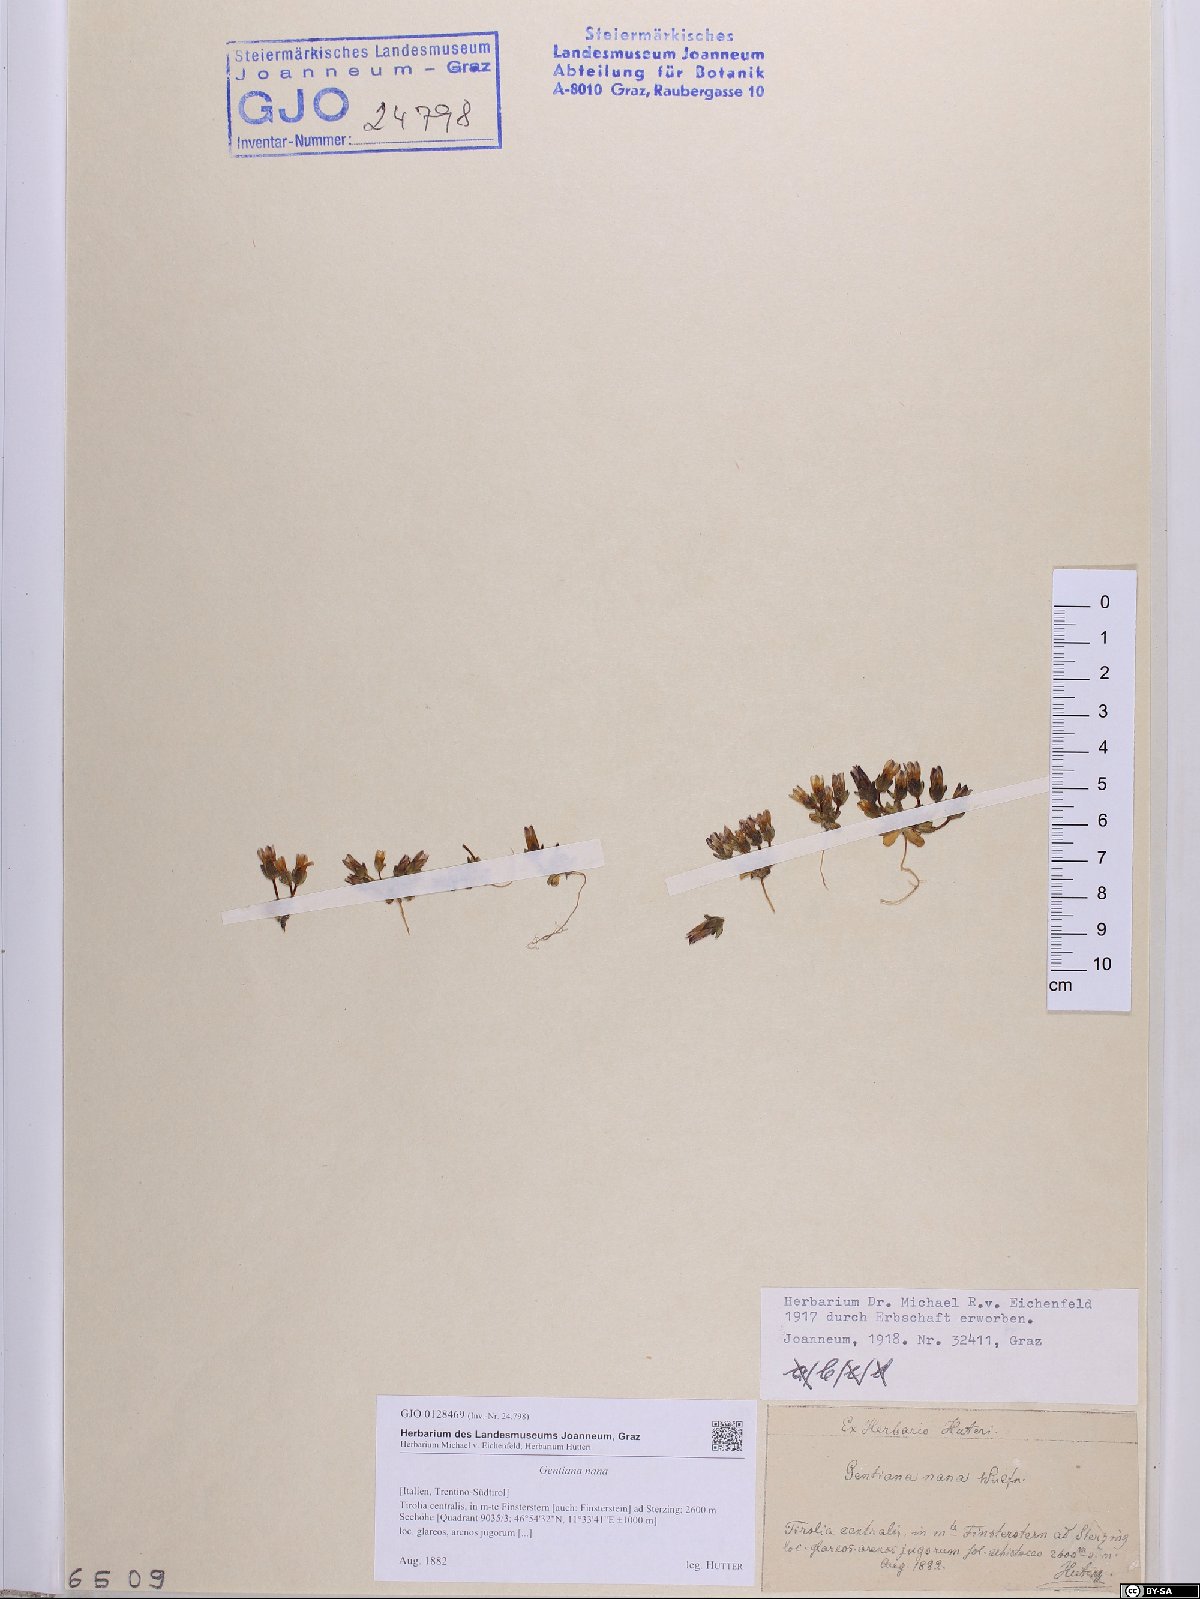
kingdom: Plantae
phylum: Tracheophyta
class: Magnoliopsida
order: Gentianales
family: Gentianaceae
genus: Comastoma
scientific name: Comastoma nanum
